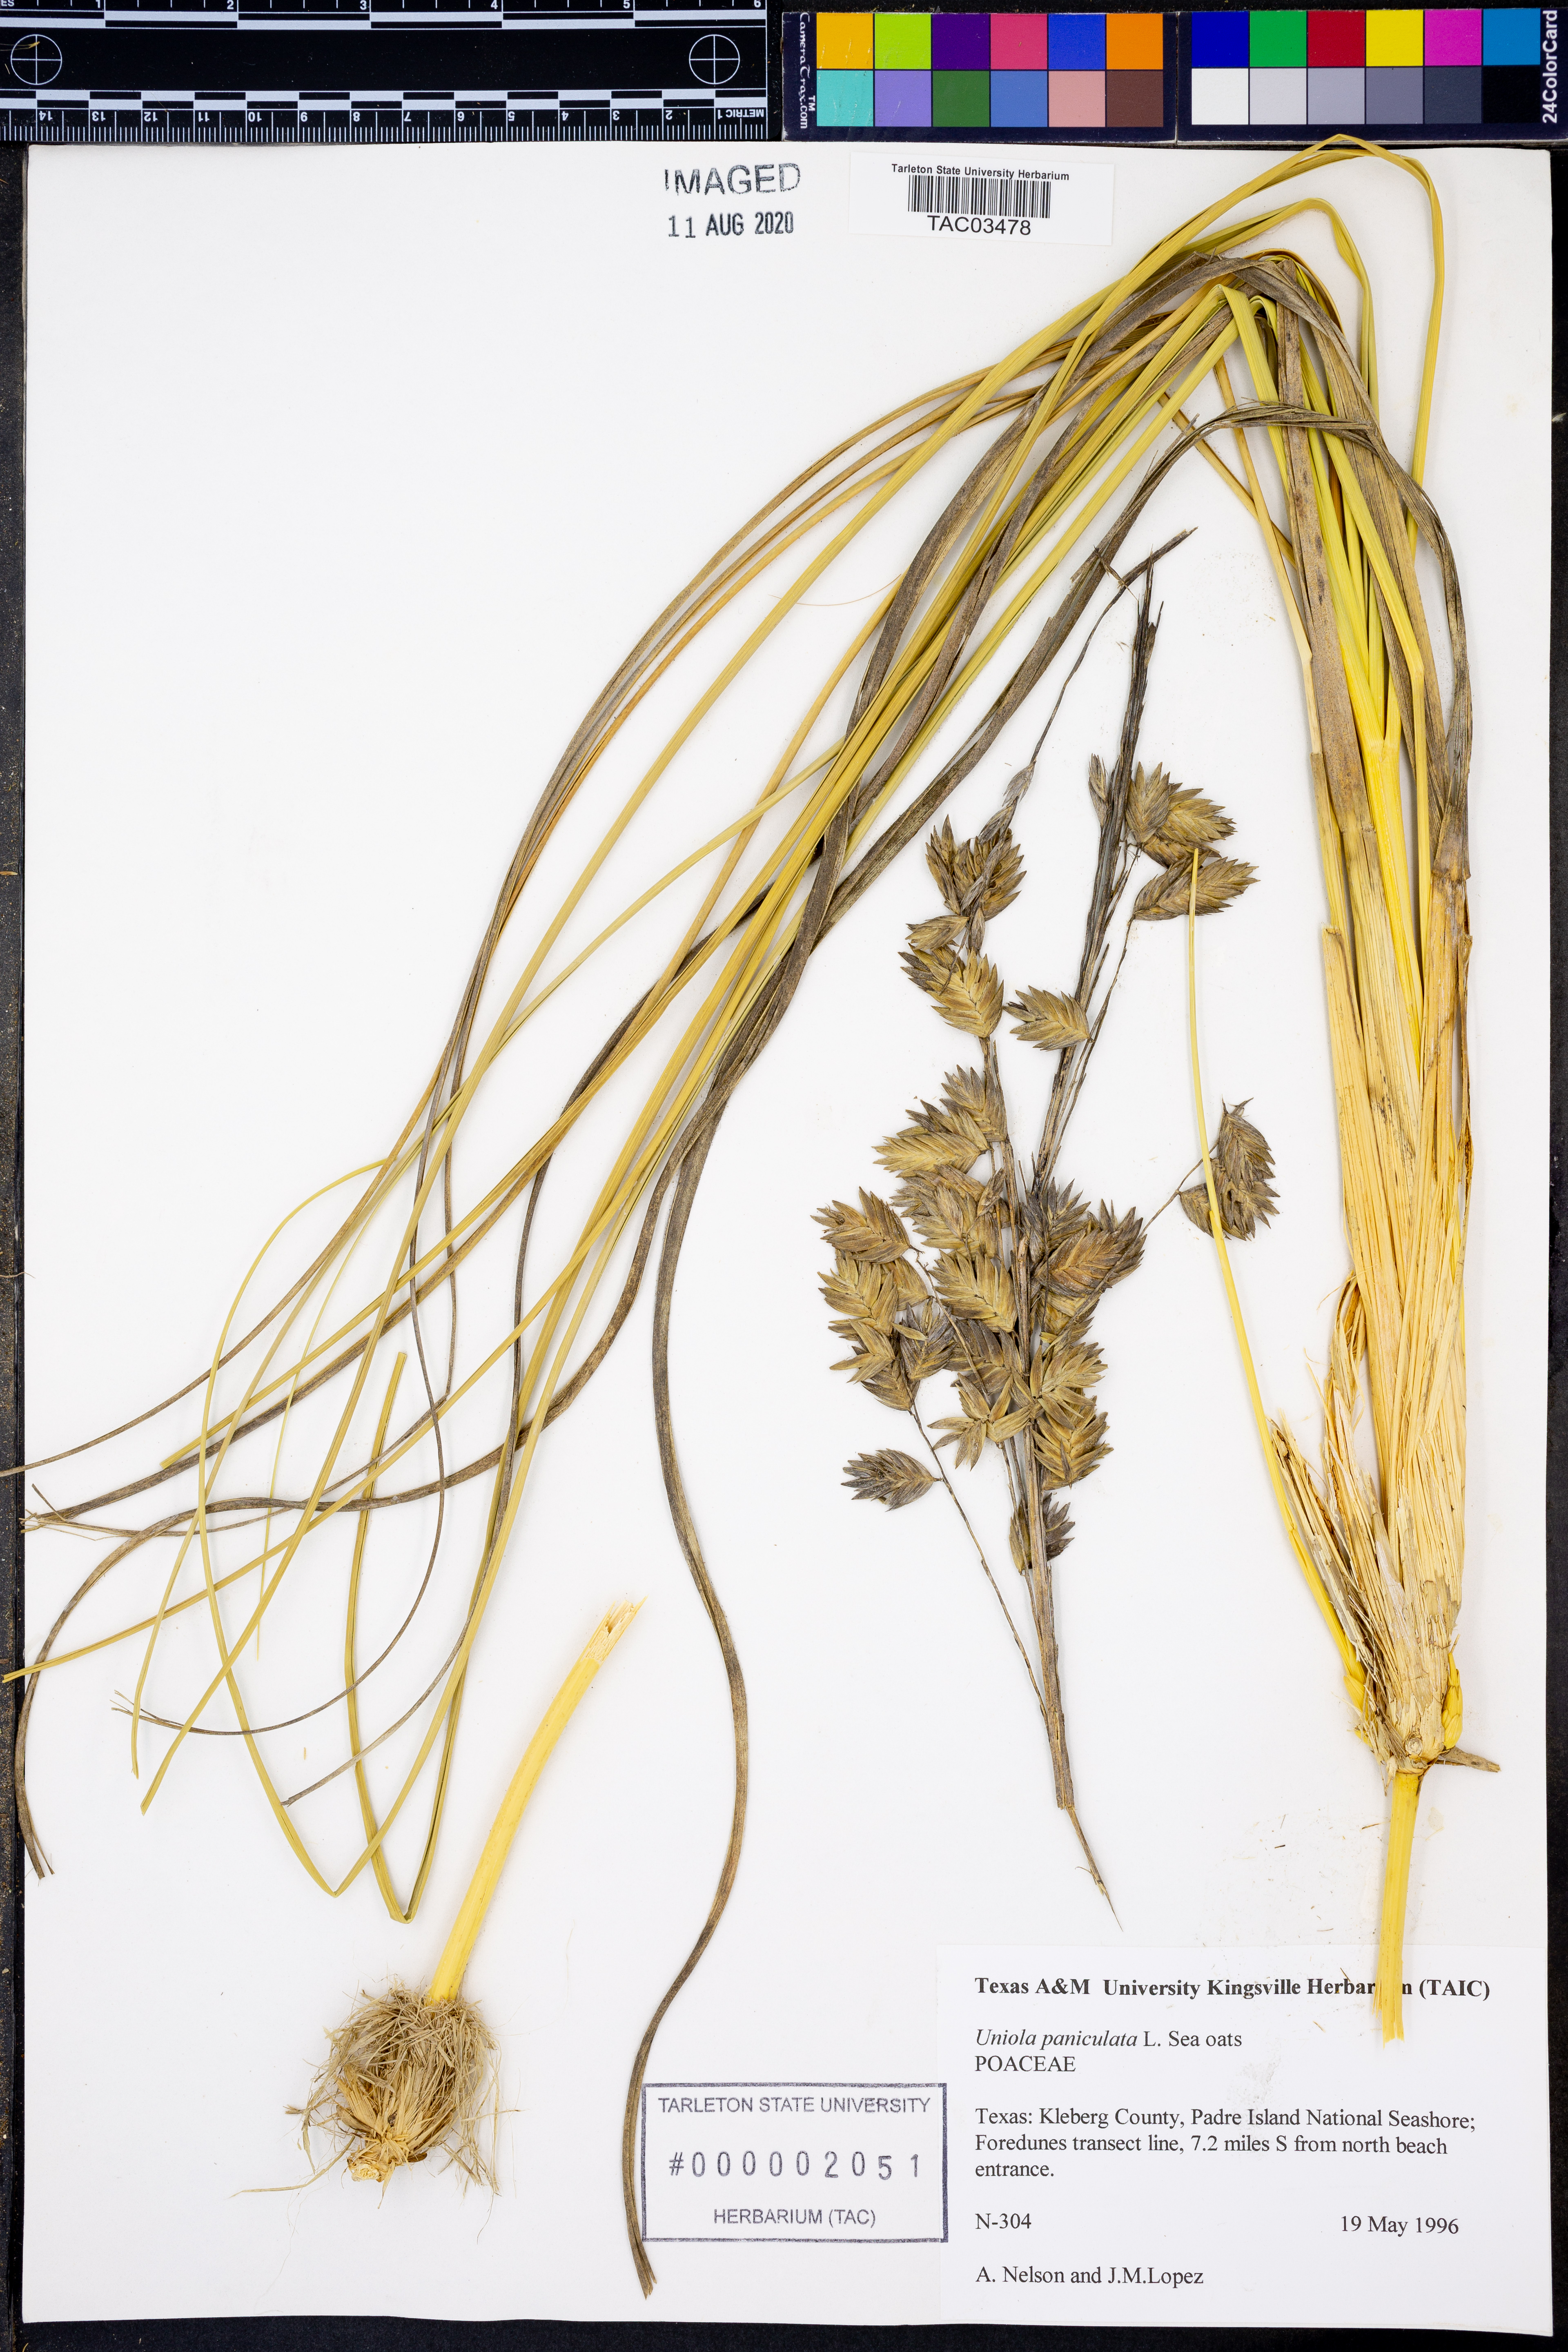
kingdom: Plantae
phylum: Tracheophyta
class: Liliopsida
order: Poales
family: Poaceae
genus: Uniola
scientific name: Uniola paniculata
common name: Seaside-oats
